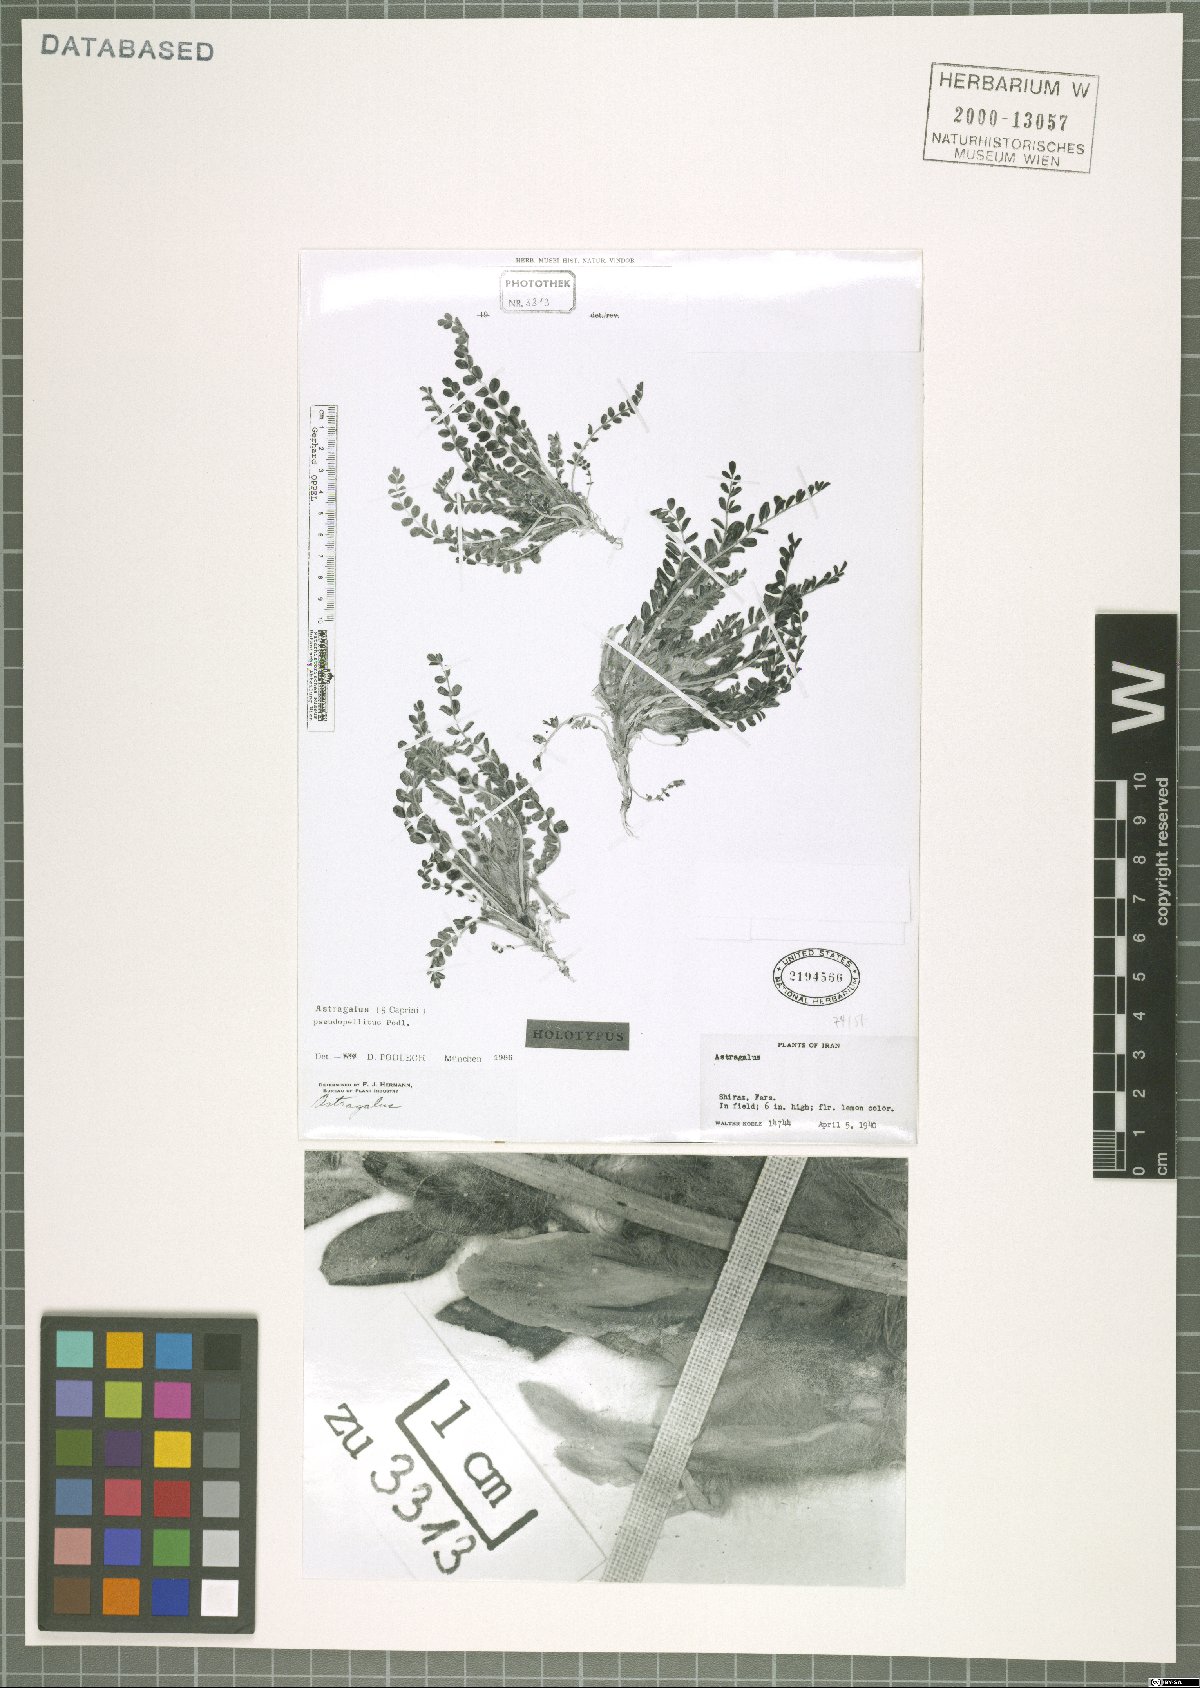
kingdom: Plantae
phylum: Tracheophyta
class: Magnoliopsida
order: Fabales
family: Fabaceae
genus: Astragalus
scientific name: Astragalus pseudopellitus
